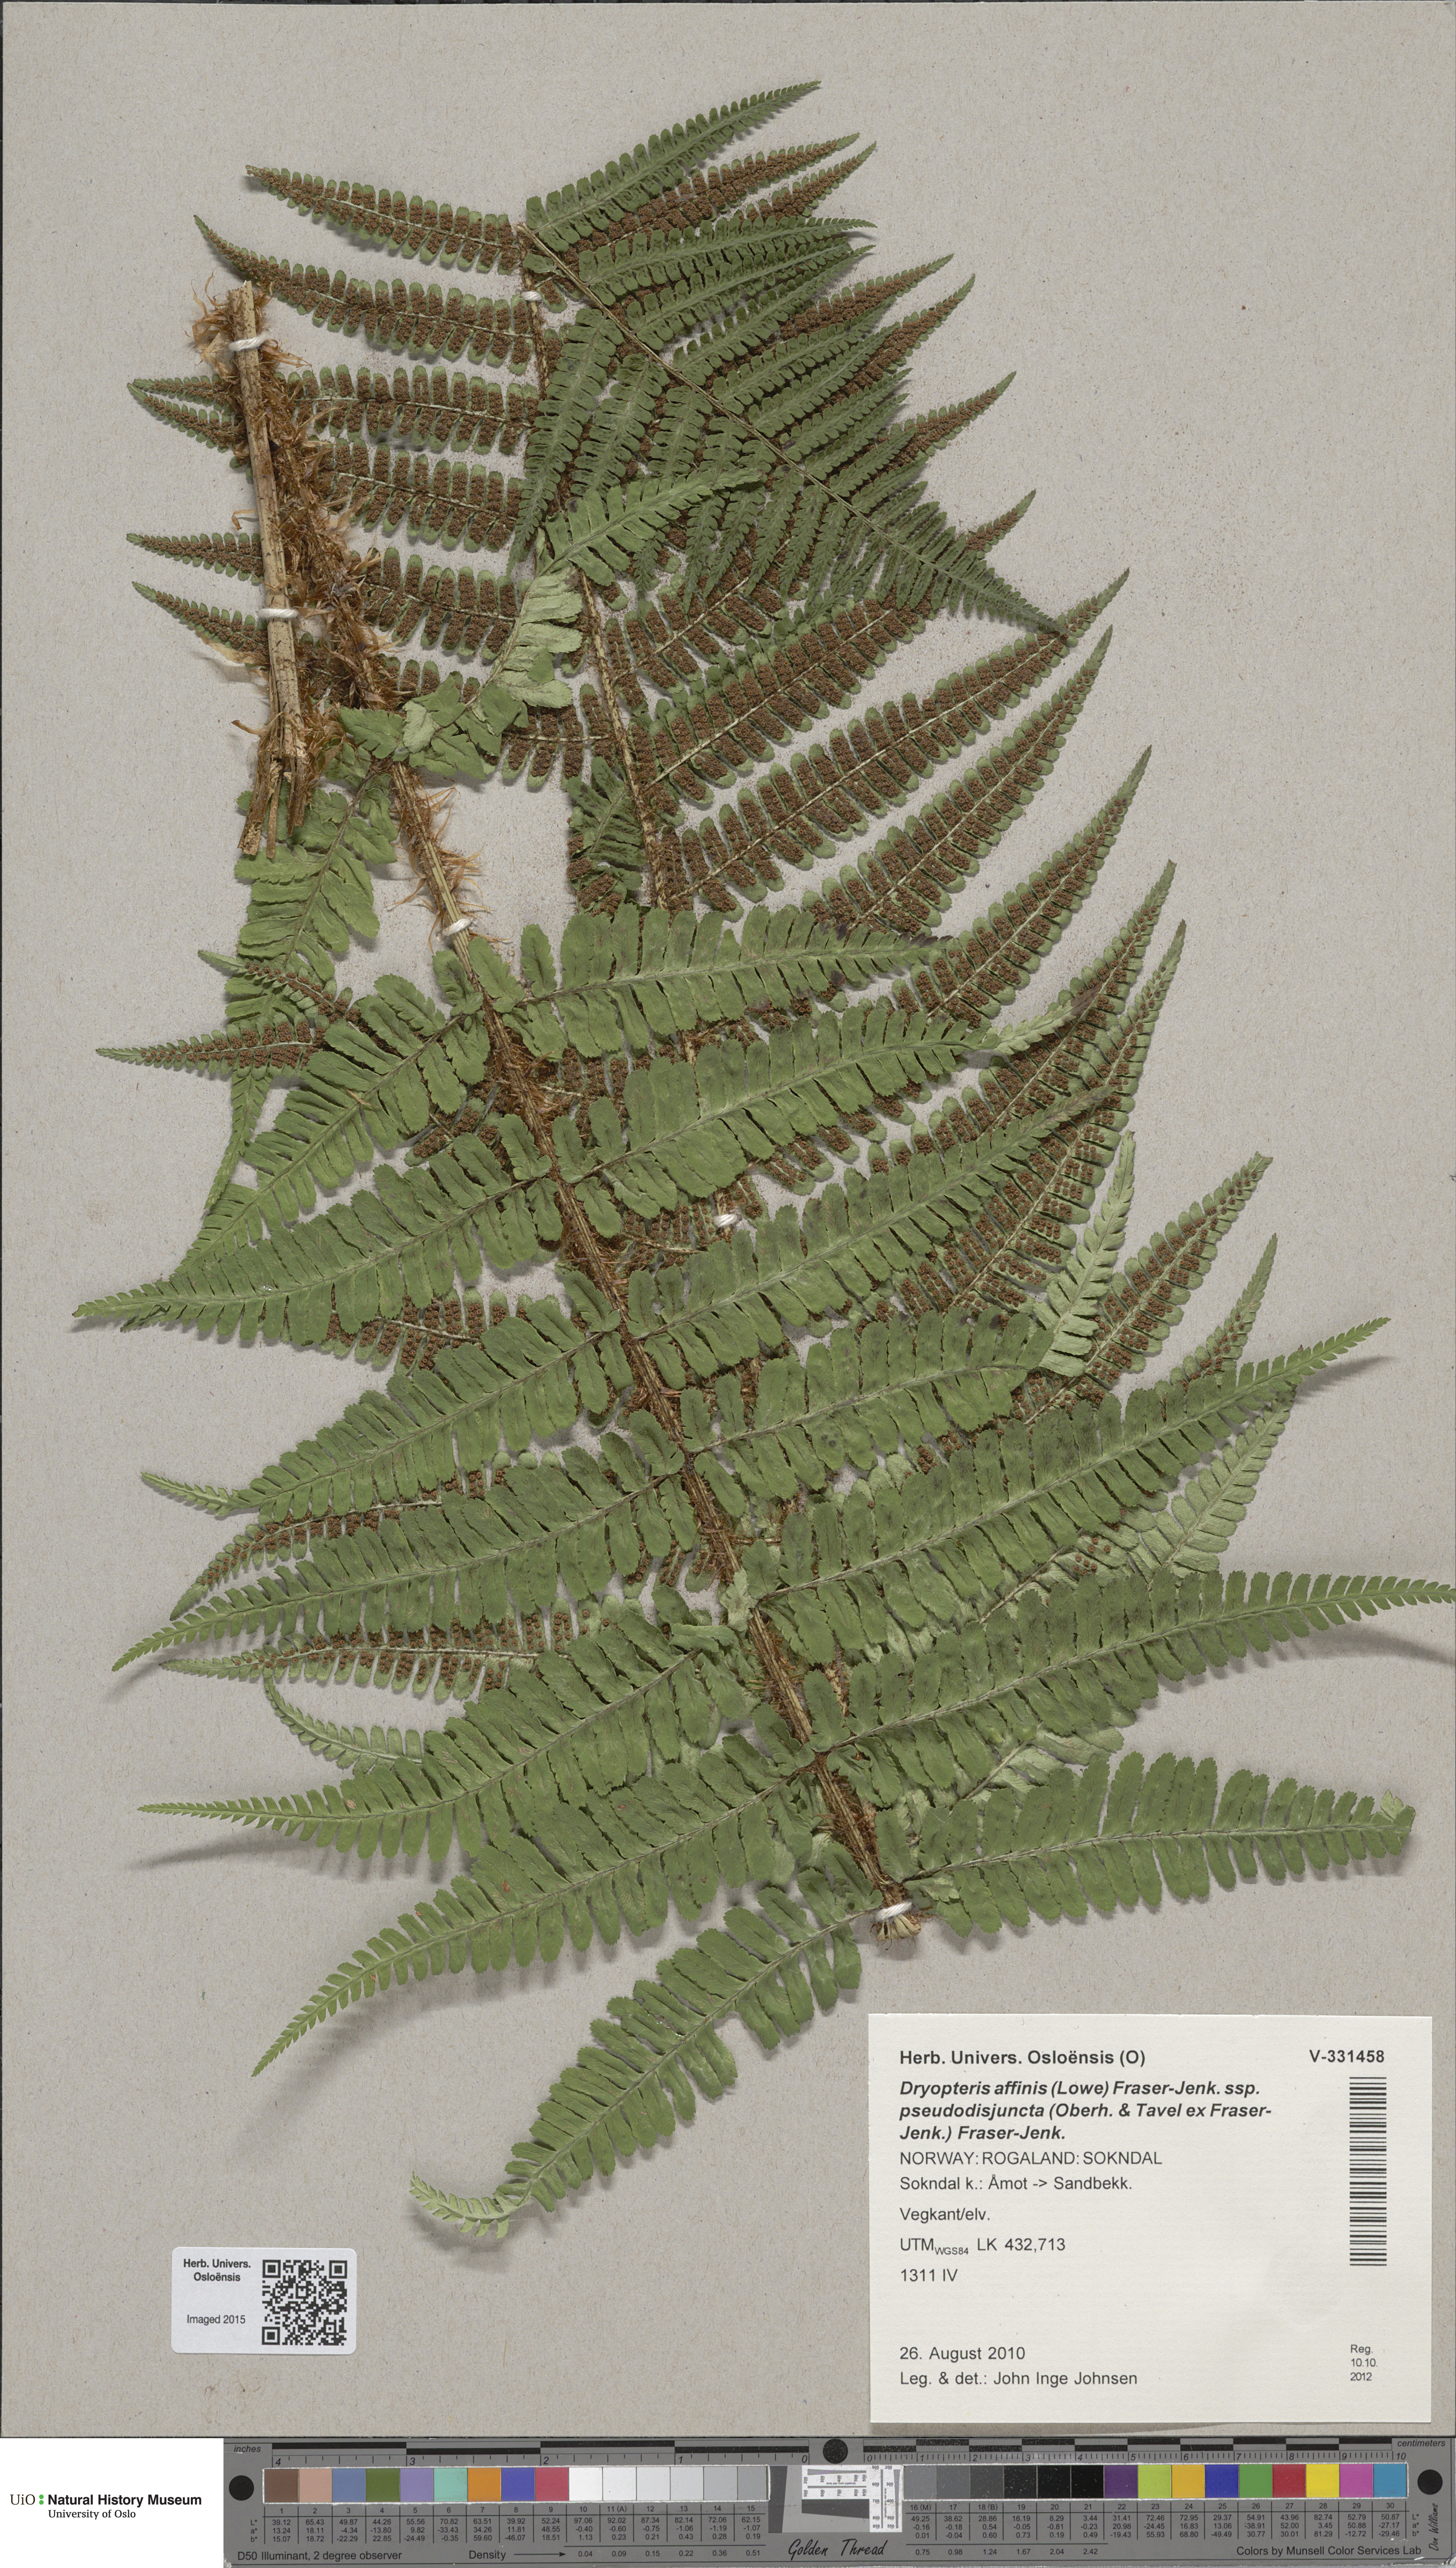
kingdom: Plantae
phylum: Tracheophyta
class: Polypodiopsida
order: Polypodiales
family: Dryopteridaceae
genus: Dryopteris
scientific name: Dryopteris pseudodisjuncta
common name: Elegant male-fern
